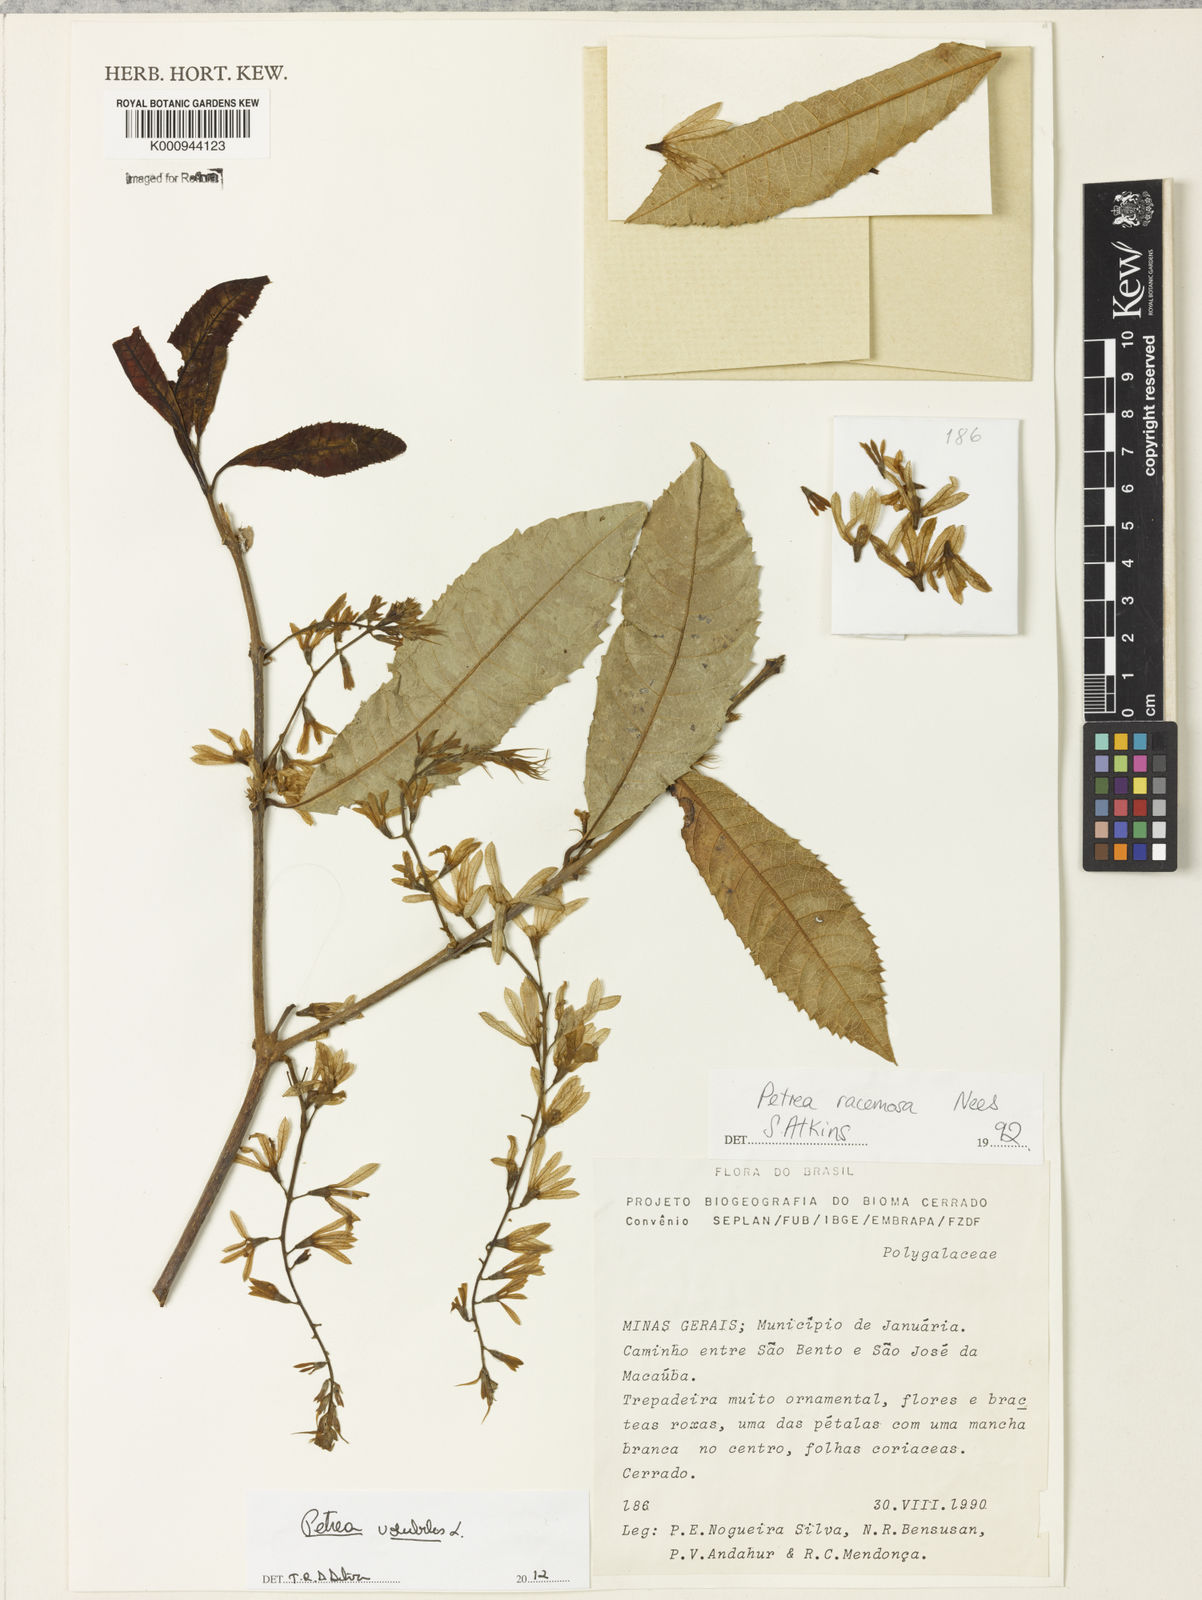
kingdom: Plantae
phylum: Tracheophyta
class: Magnoliopsida
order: Lamiales
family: Verbenaceae
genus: Petrea
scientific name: Petrea volubilis
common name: Queen's-wreath
